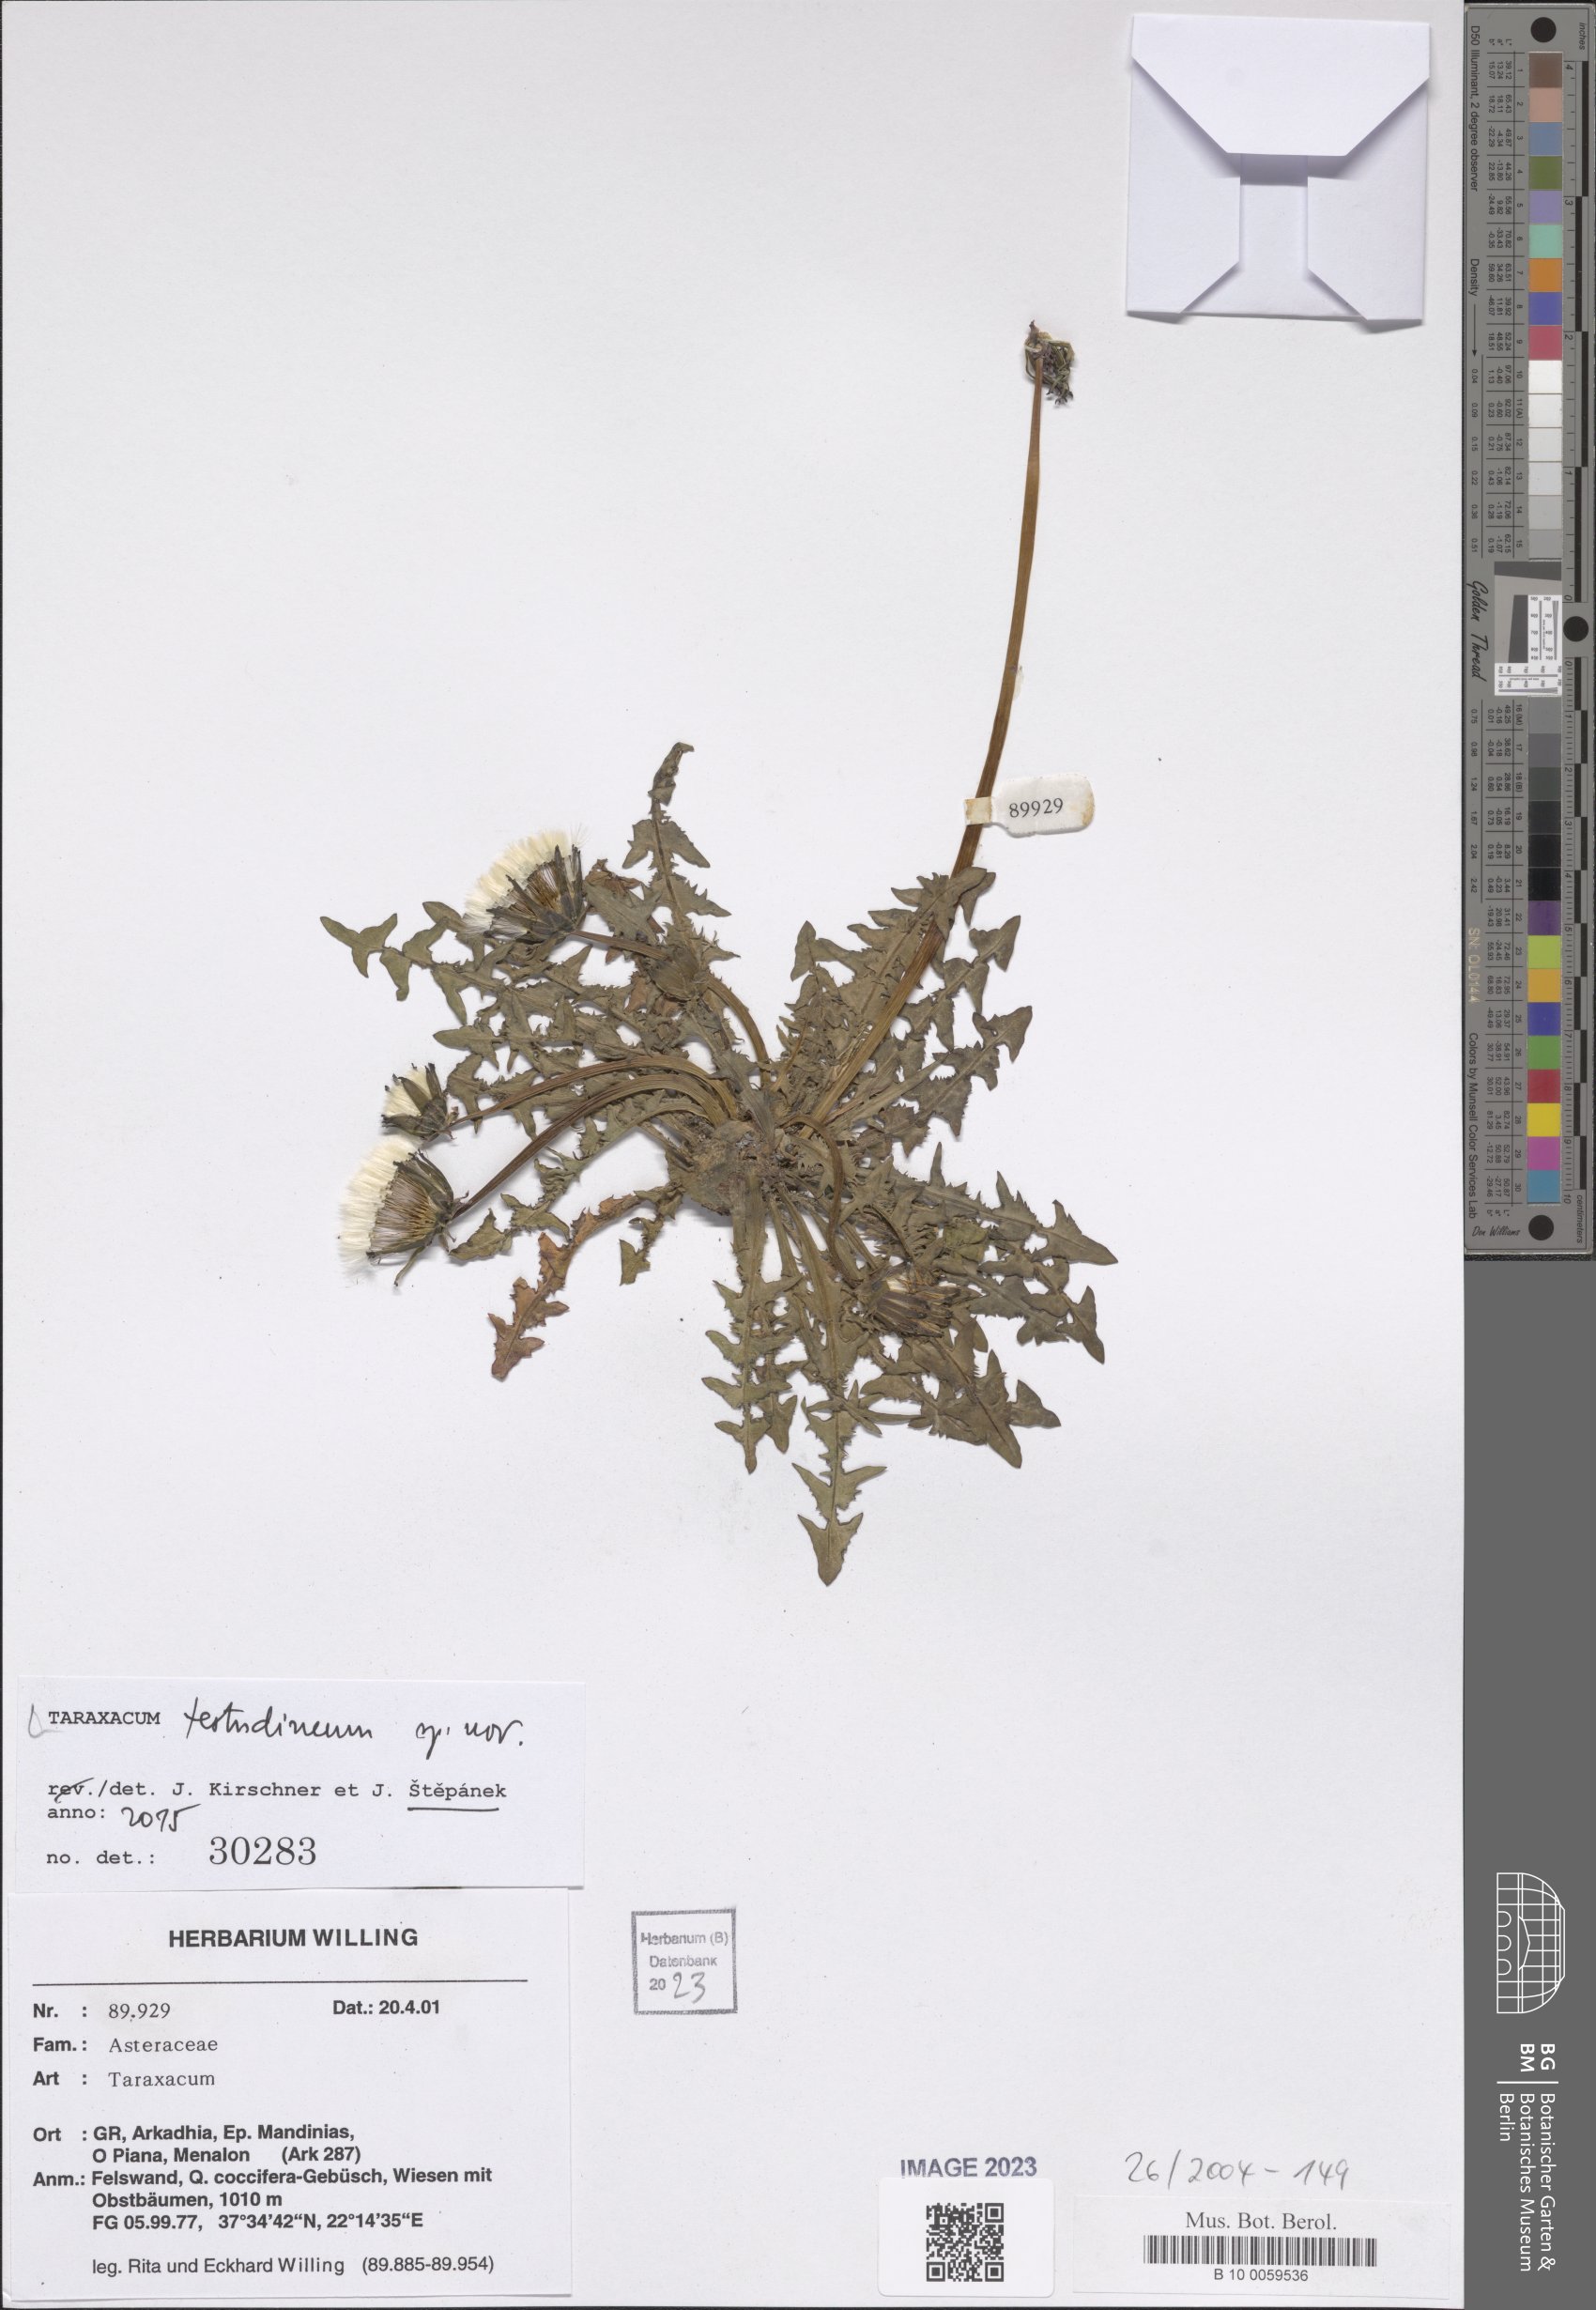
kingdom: Plantae
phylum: Tracheophyta
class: Magnoliopsida
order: Asterales
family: Asteraceae
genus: Taraxacum
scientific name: Taraxacum
